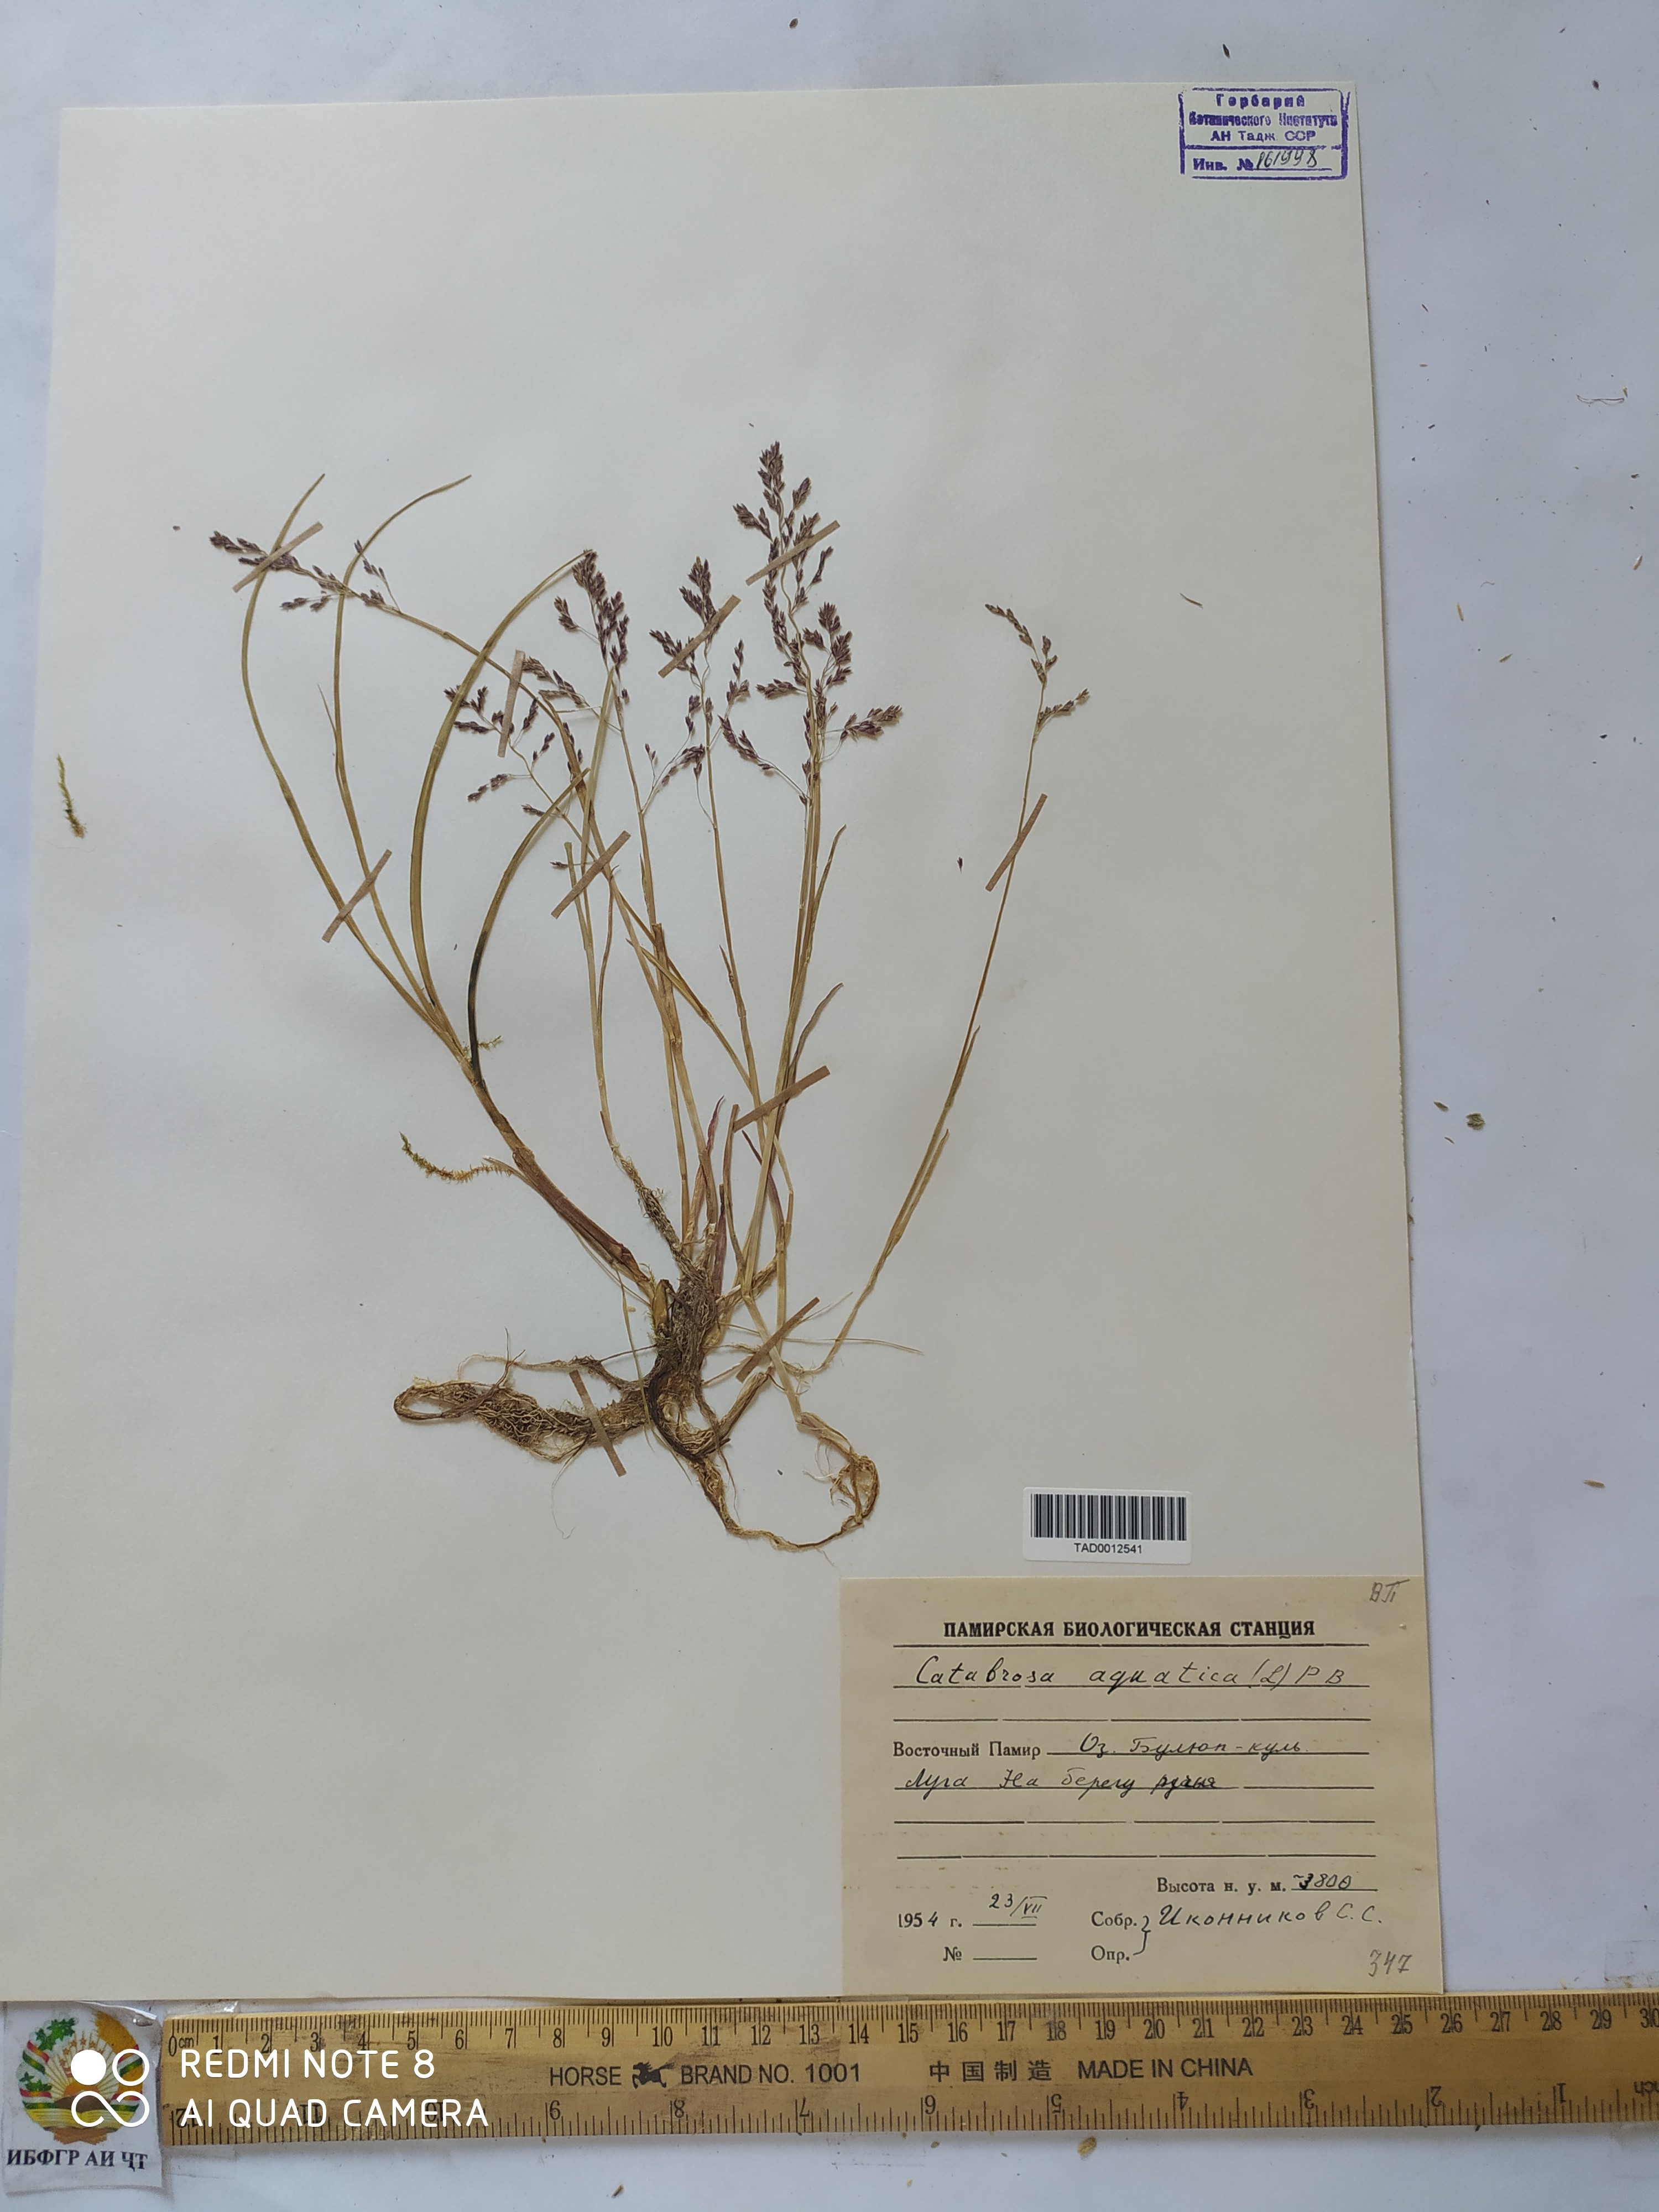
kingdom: Plantae
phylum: Tracheophyta
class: Liliopsida
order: Poales
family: Poaceae
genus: Catabrosa
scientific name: Catabrosa aquatica
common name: Whorl-grass
